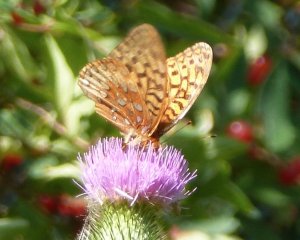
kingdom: Animalia
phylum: Arthropoda
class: Insecta
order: Lepidoptera
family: Nymphalidae
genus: Speyeria
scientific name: Speyeria cybele
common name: Great Spangled Fritillary
